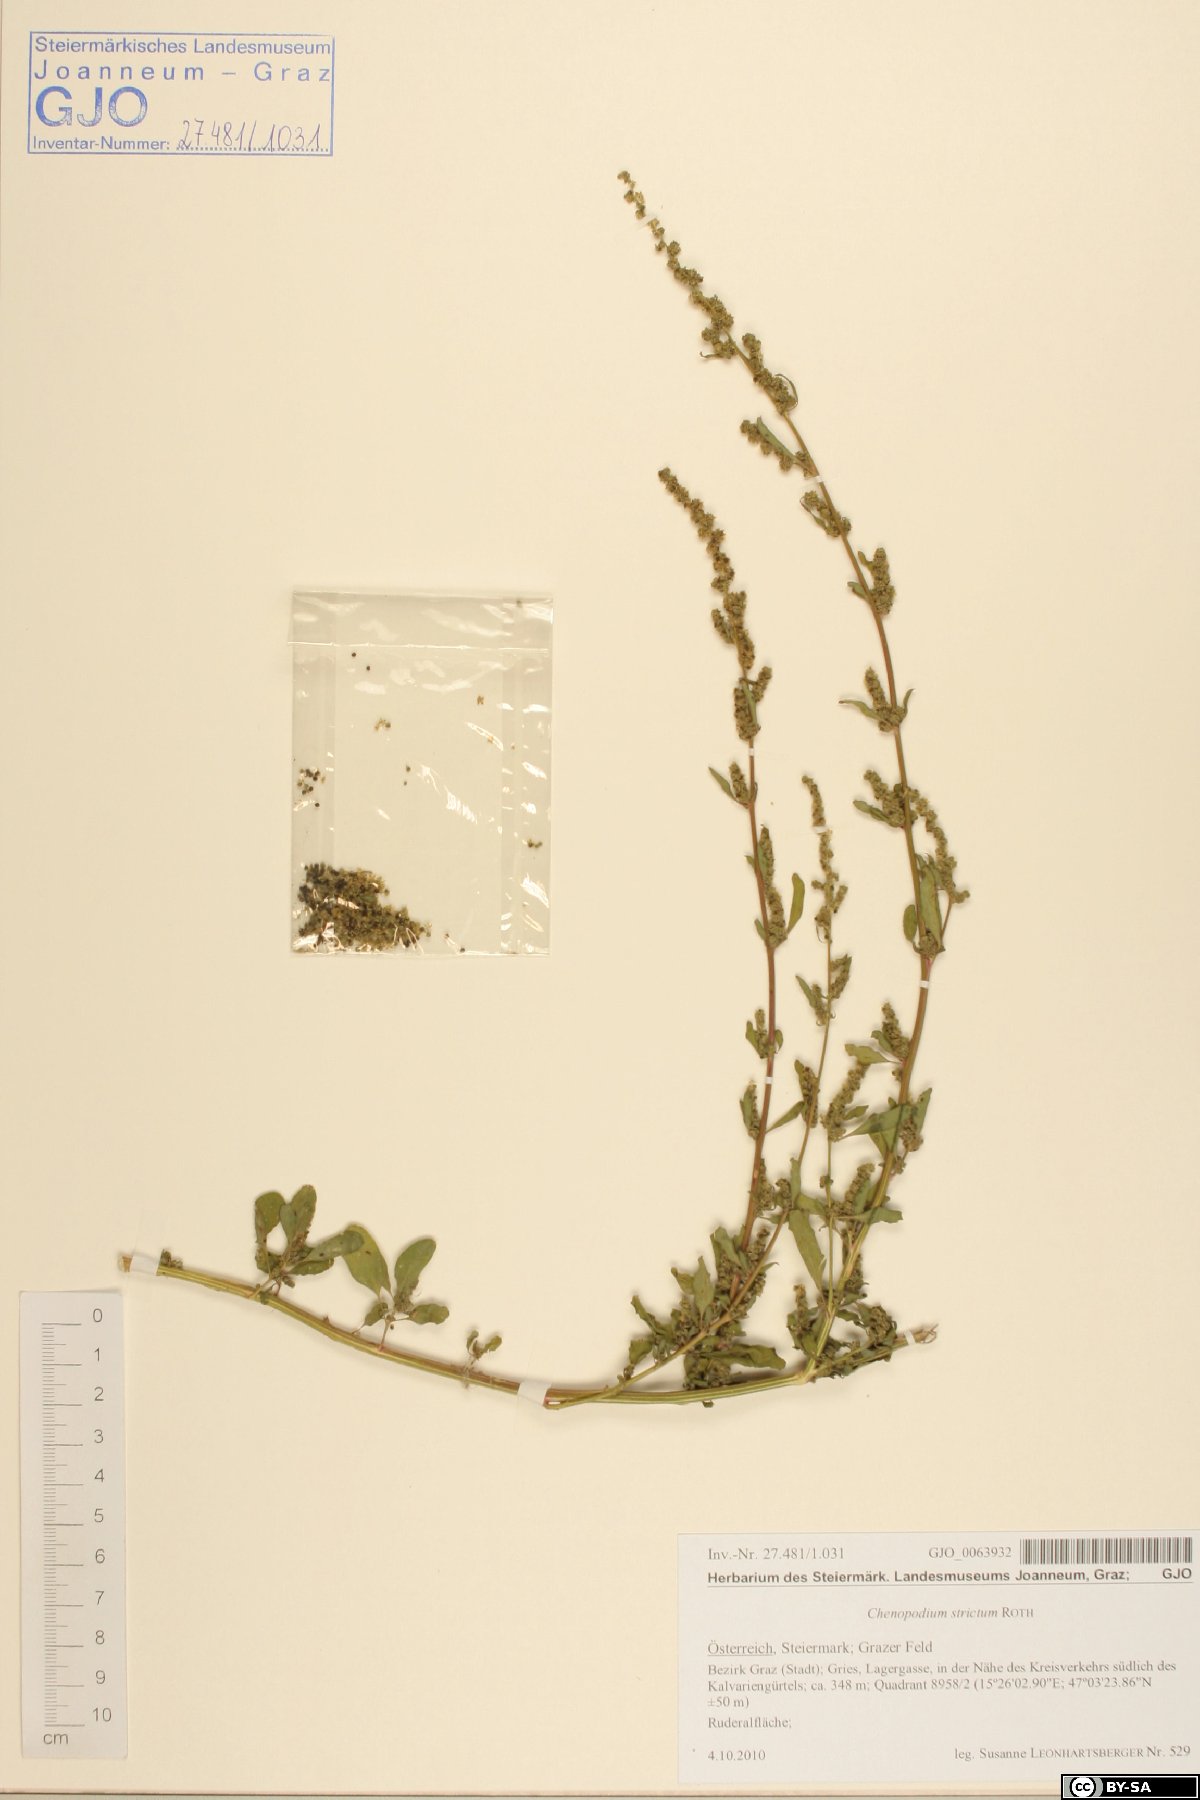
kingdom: Plantae
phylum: Tracheophyta
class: Magnoliopsida
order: Caryophyllales
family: Amaranthaceae
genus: Chenopodium
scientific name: Chenopodium album
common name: Fat-hen
